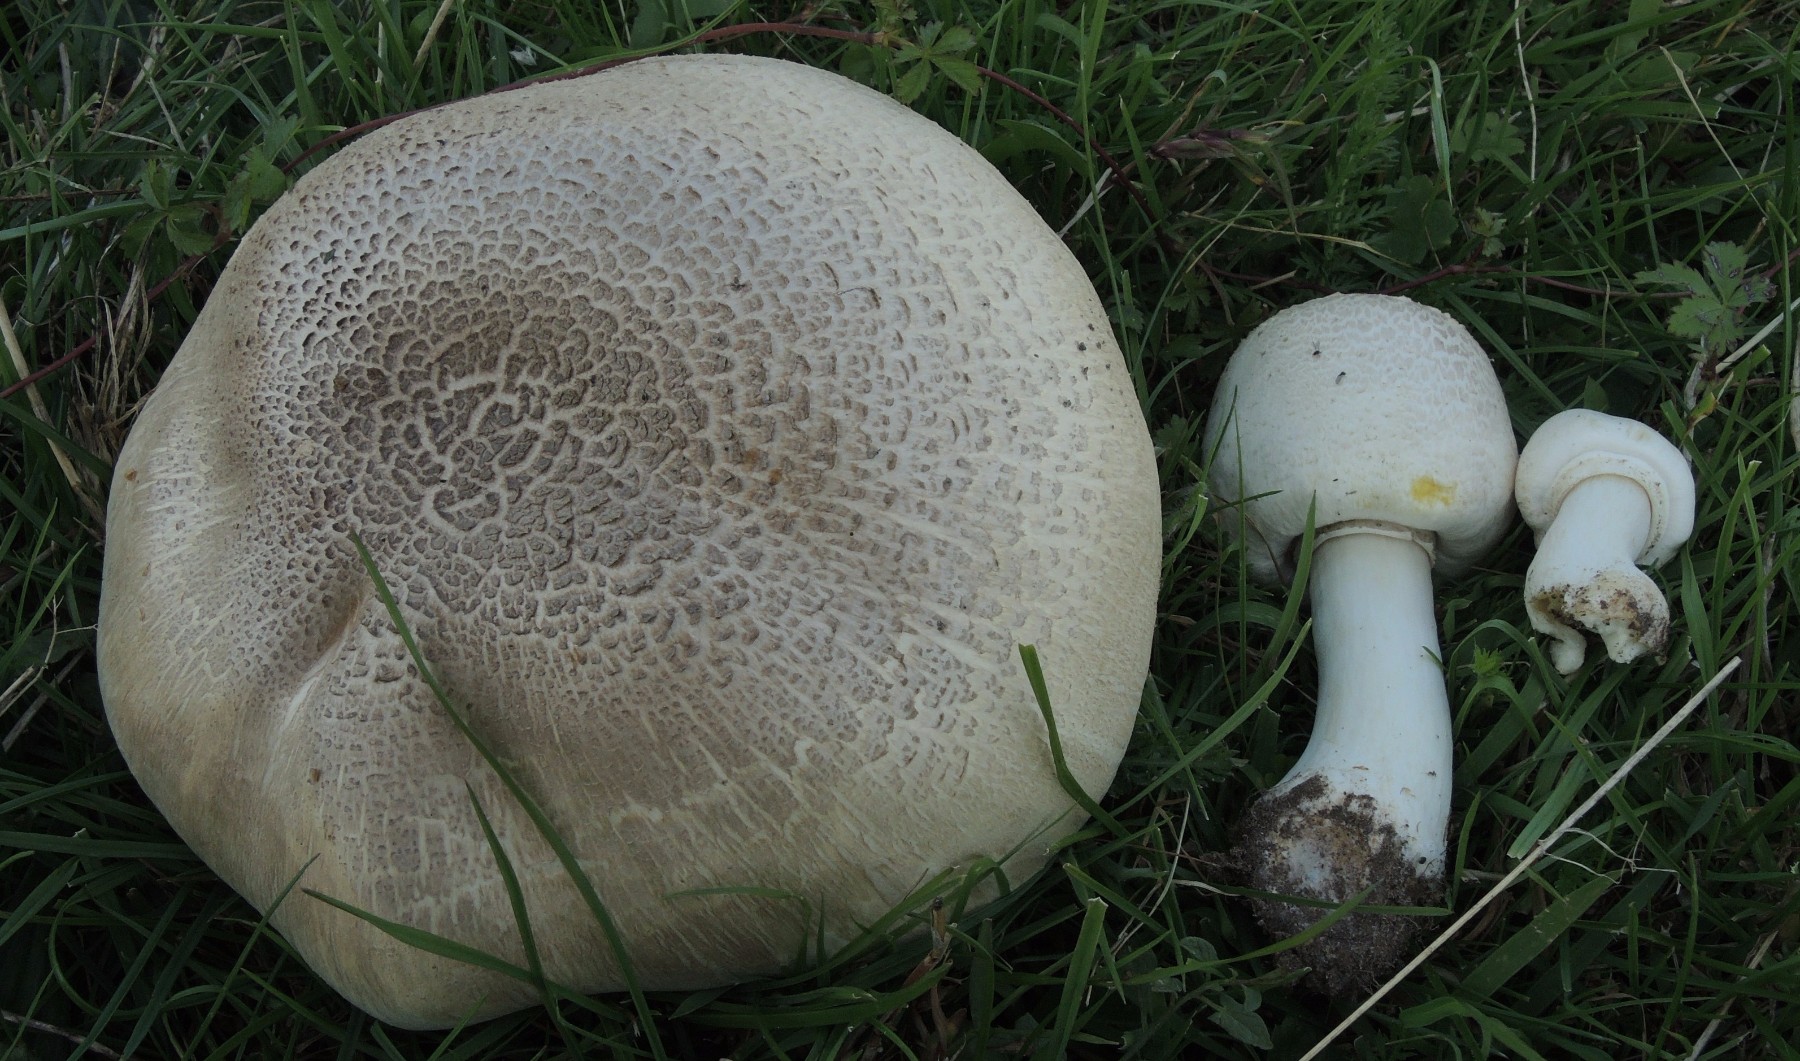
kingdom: Fungi
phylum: Basidiomycota
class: Agaricomycetes
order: Agaricales
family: Agaricaceae
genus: Agaricus
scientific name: Agaricus xanthodermus
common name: karbol-champignon
